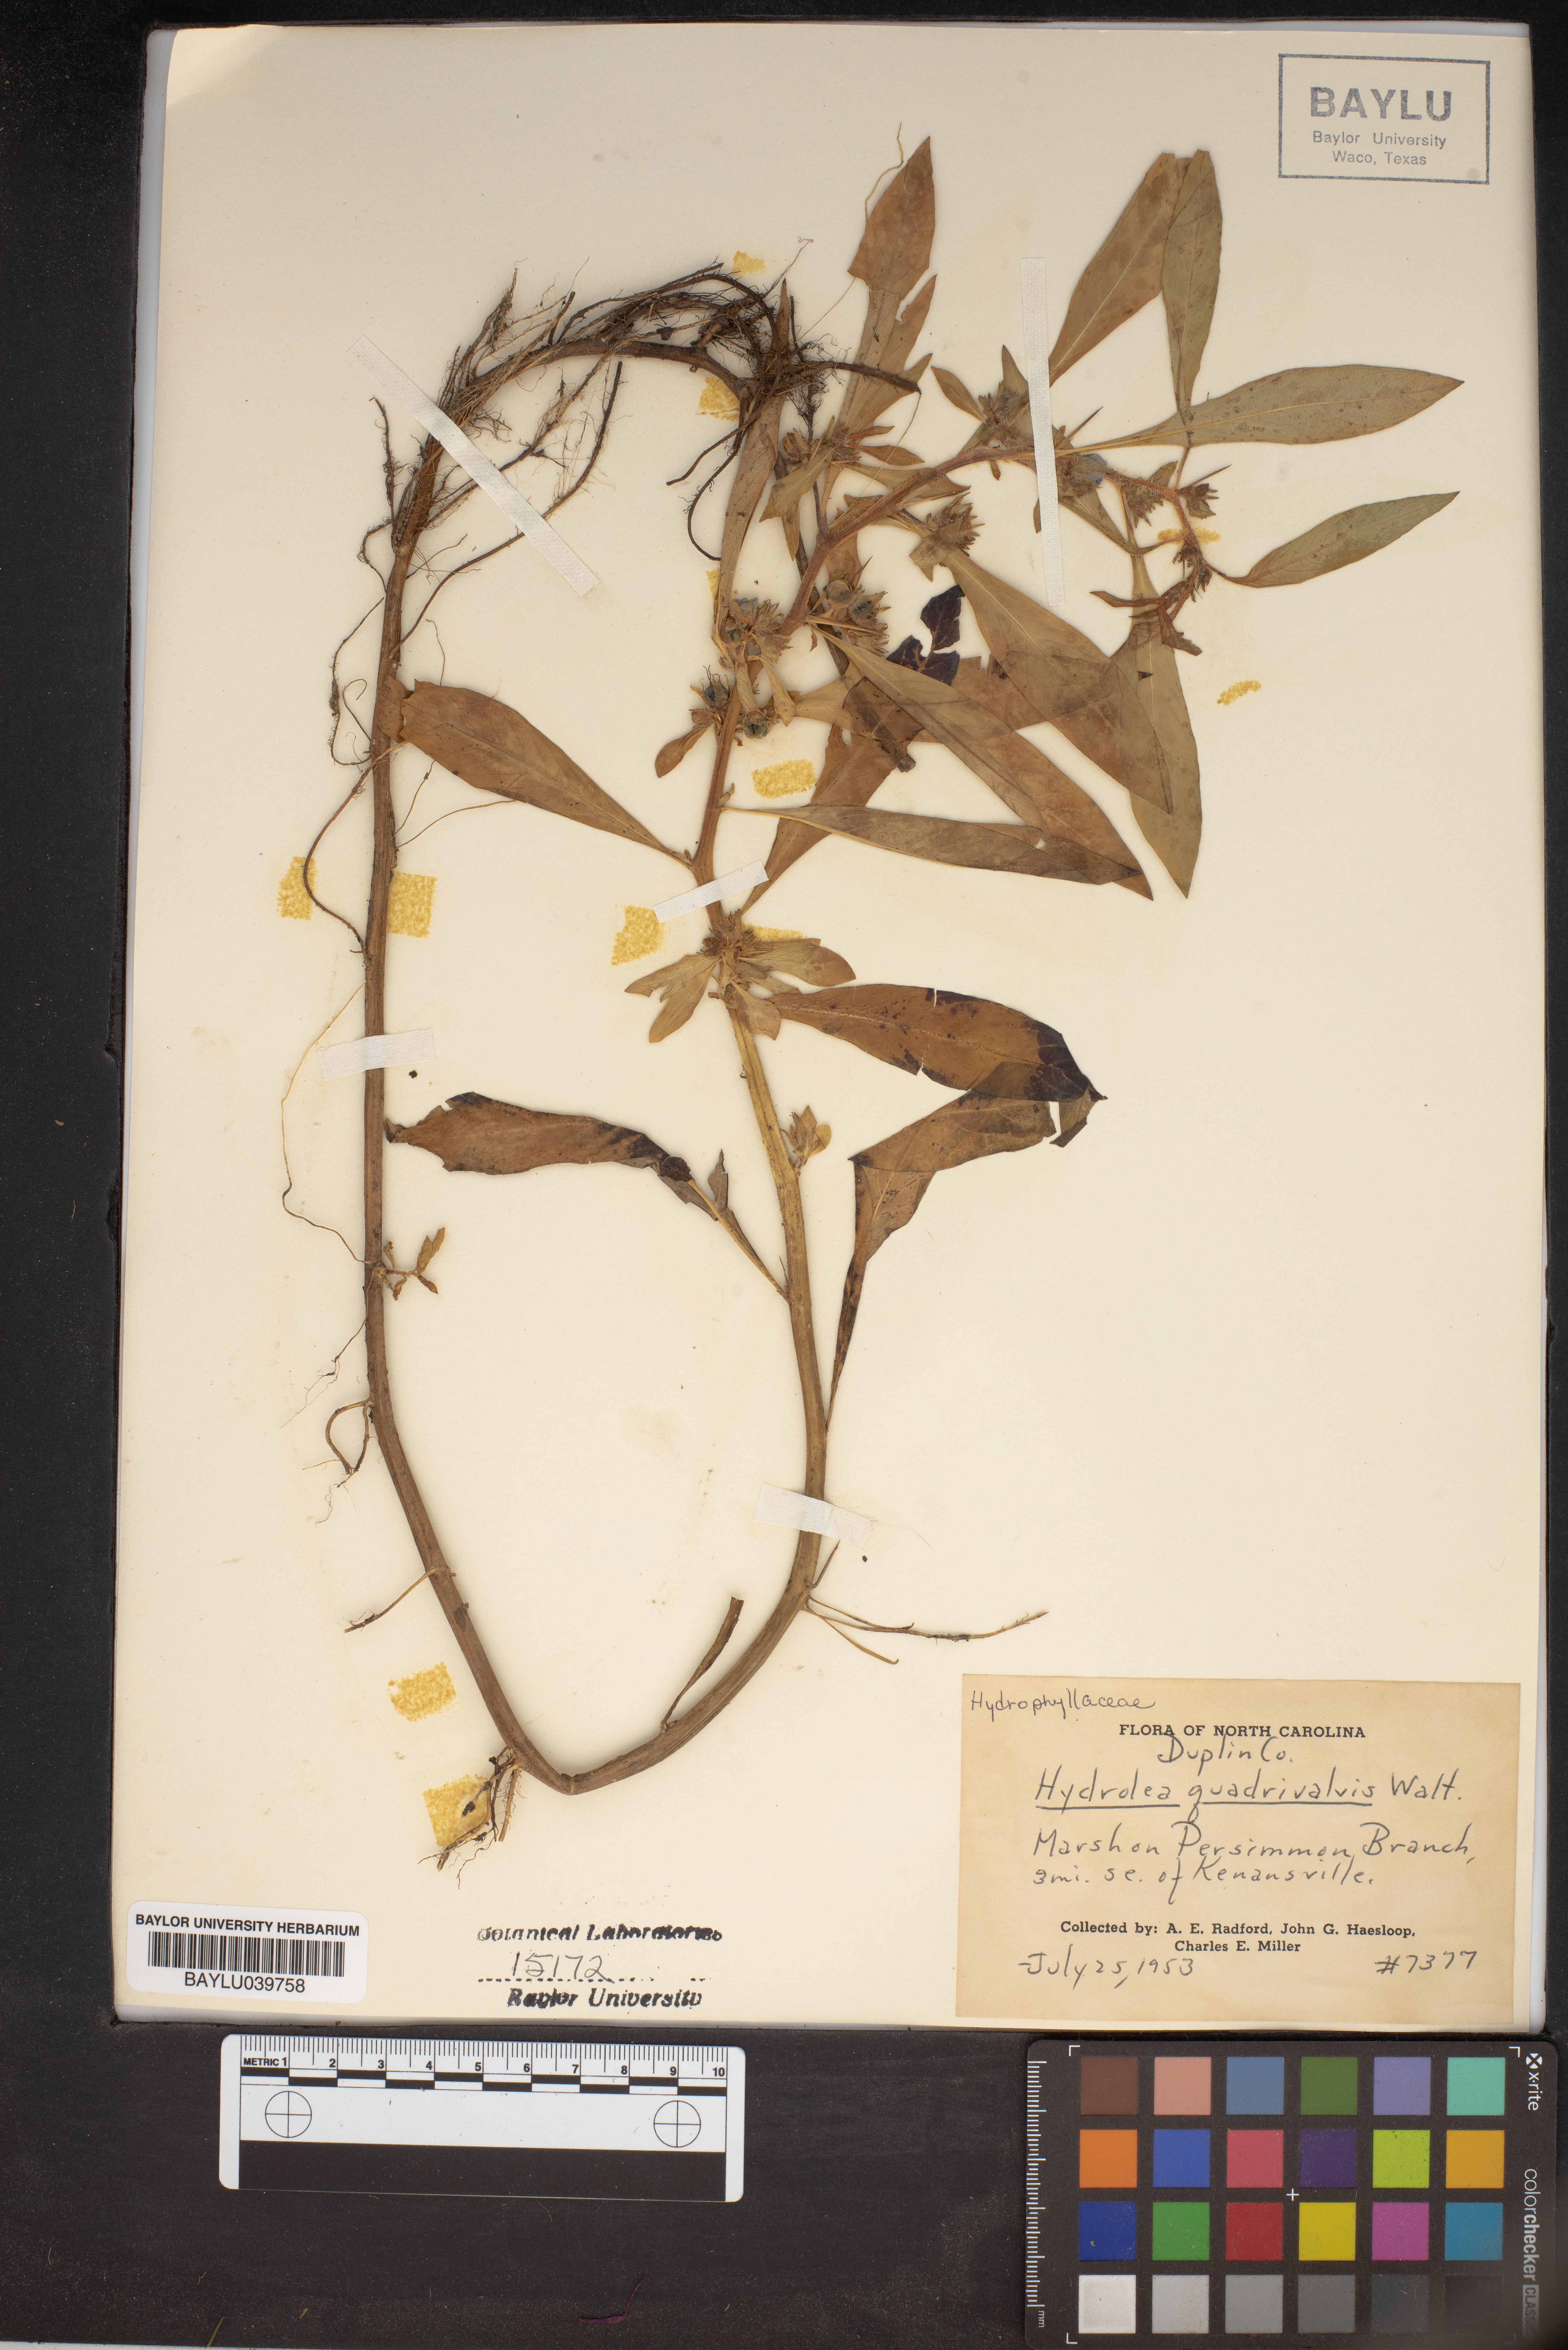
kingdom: Plantae
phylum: Tracheophyta
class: Magnoliopsida
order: Solanales
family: Hydroleaceae
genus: Hydrolea
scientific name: Hydrolea quadrivalvis
